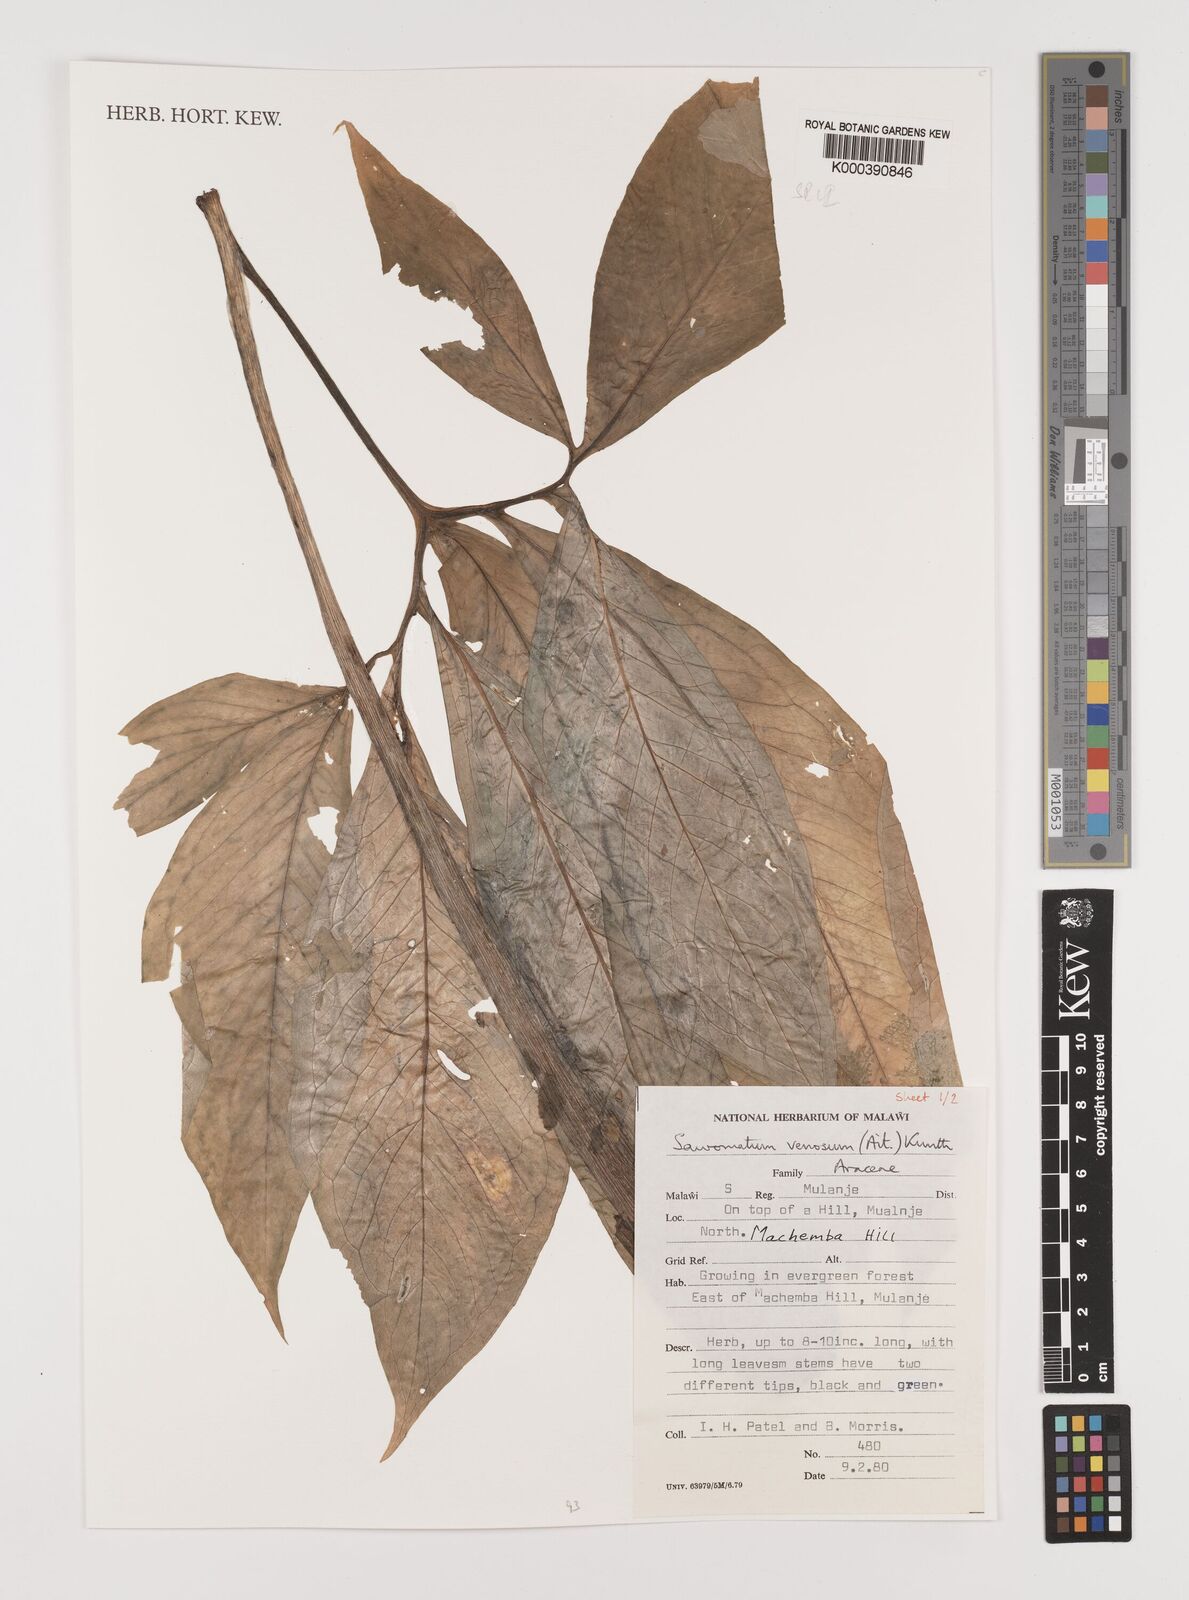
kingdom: Plantae
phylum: Tracheophyta
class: Liliopsida
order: Alismatales
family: Araceae
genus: Sauromatum
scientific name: Sauromatum venosum
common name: Voodoo lily
